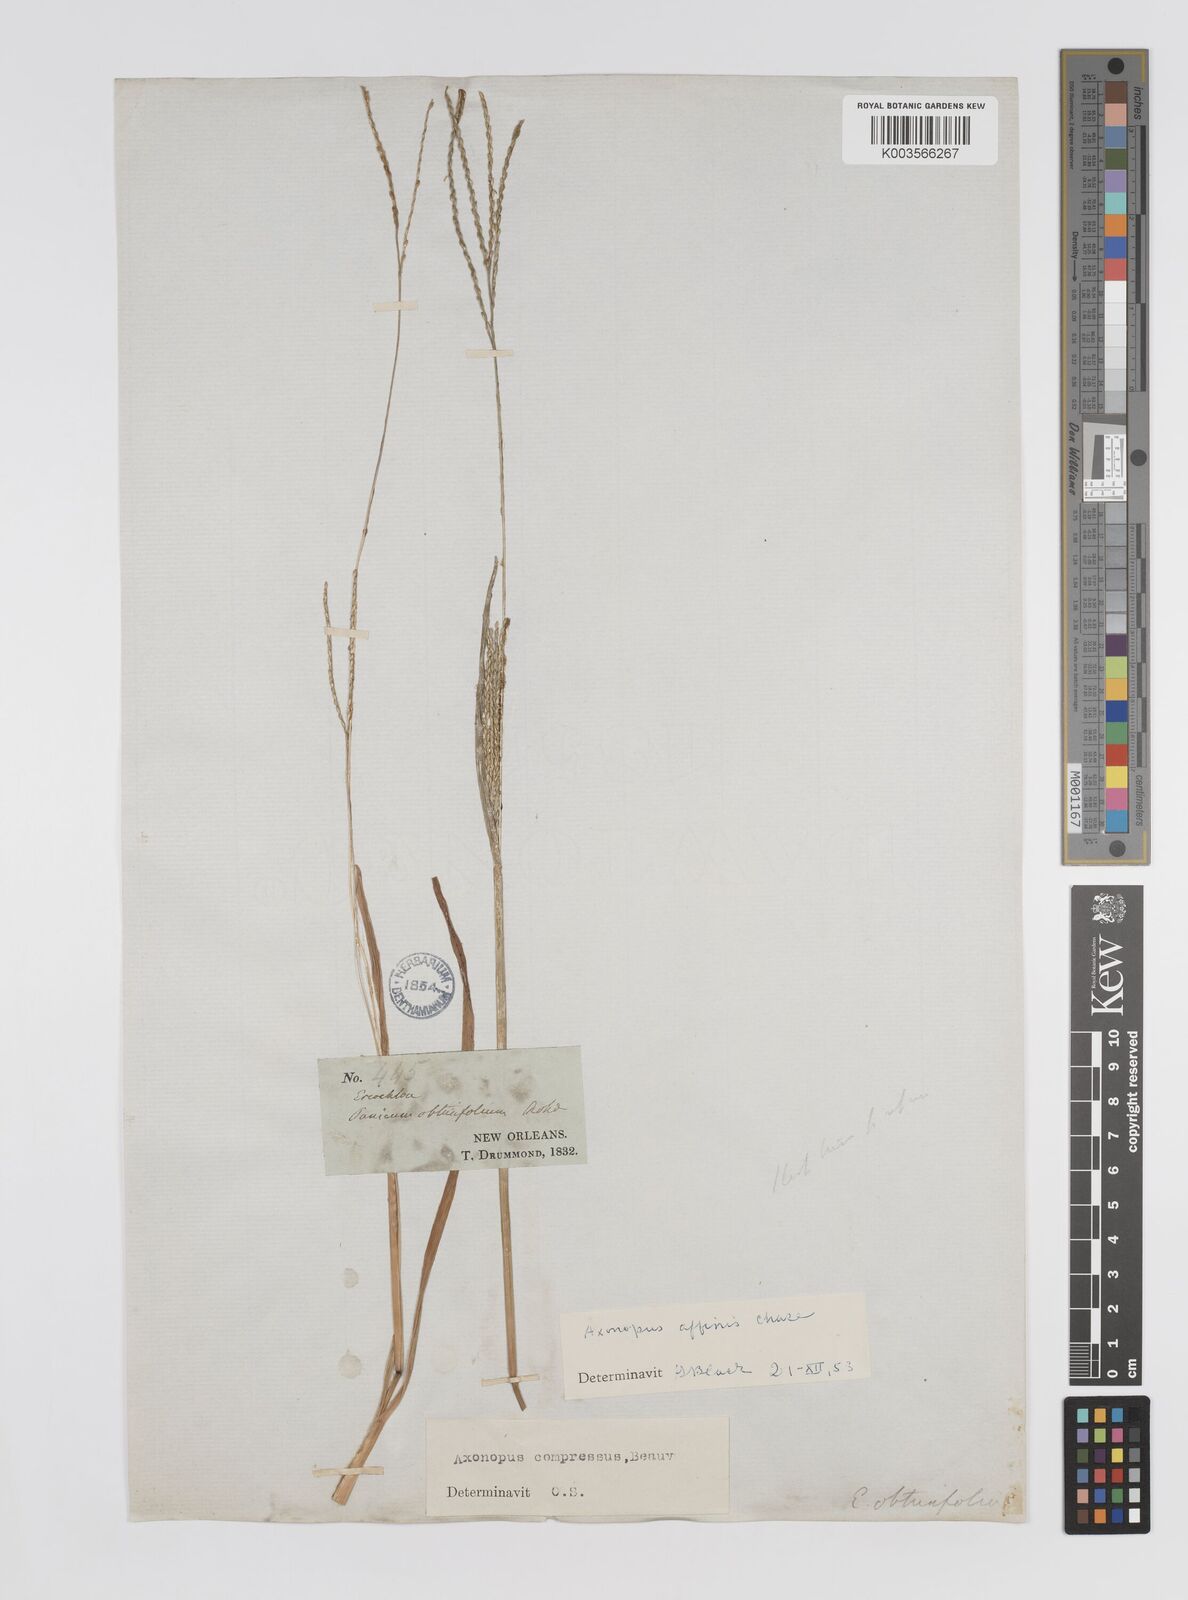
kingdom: Plantae
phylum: Tracheophyta
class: Liliopsida
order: Poales
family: Poaceae
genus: Axonopus
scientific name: Axonopus fissifolius
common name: Common carpetgrass
